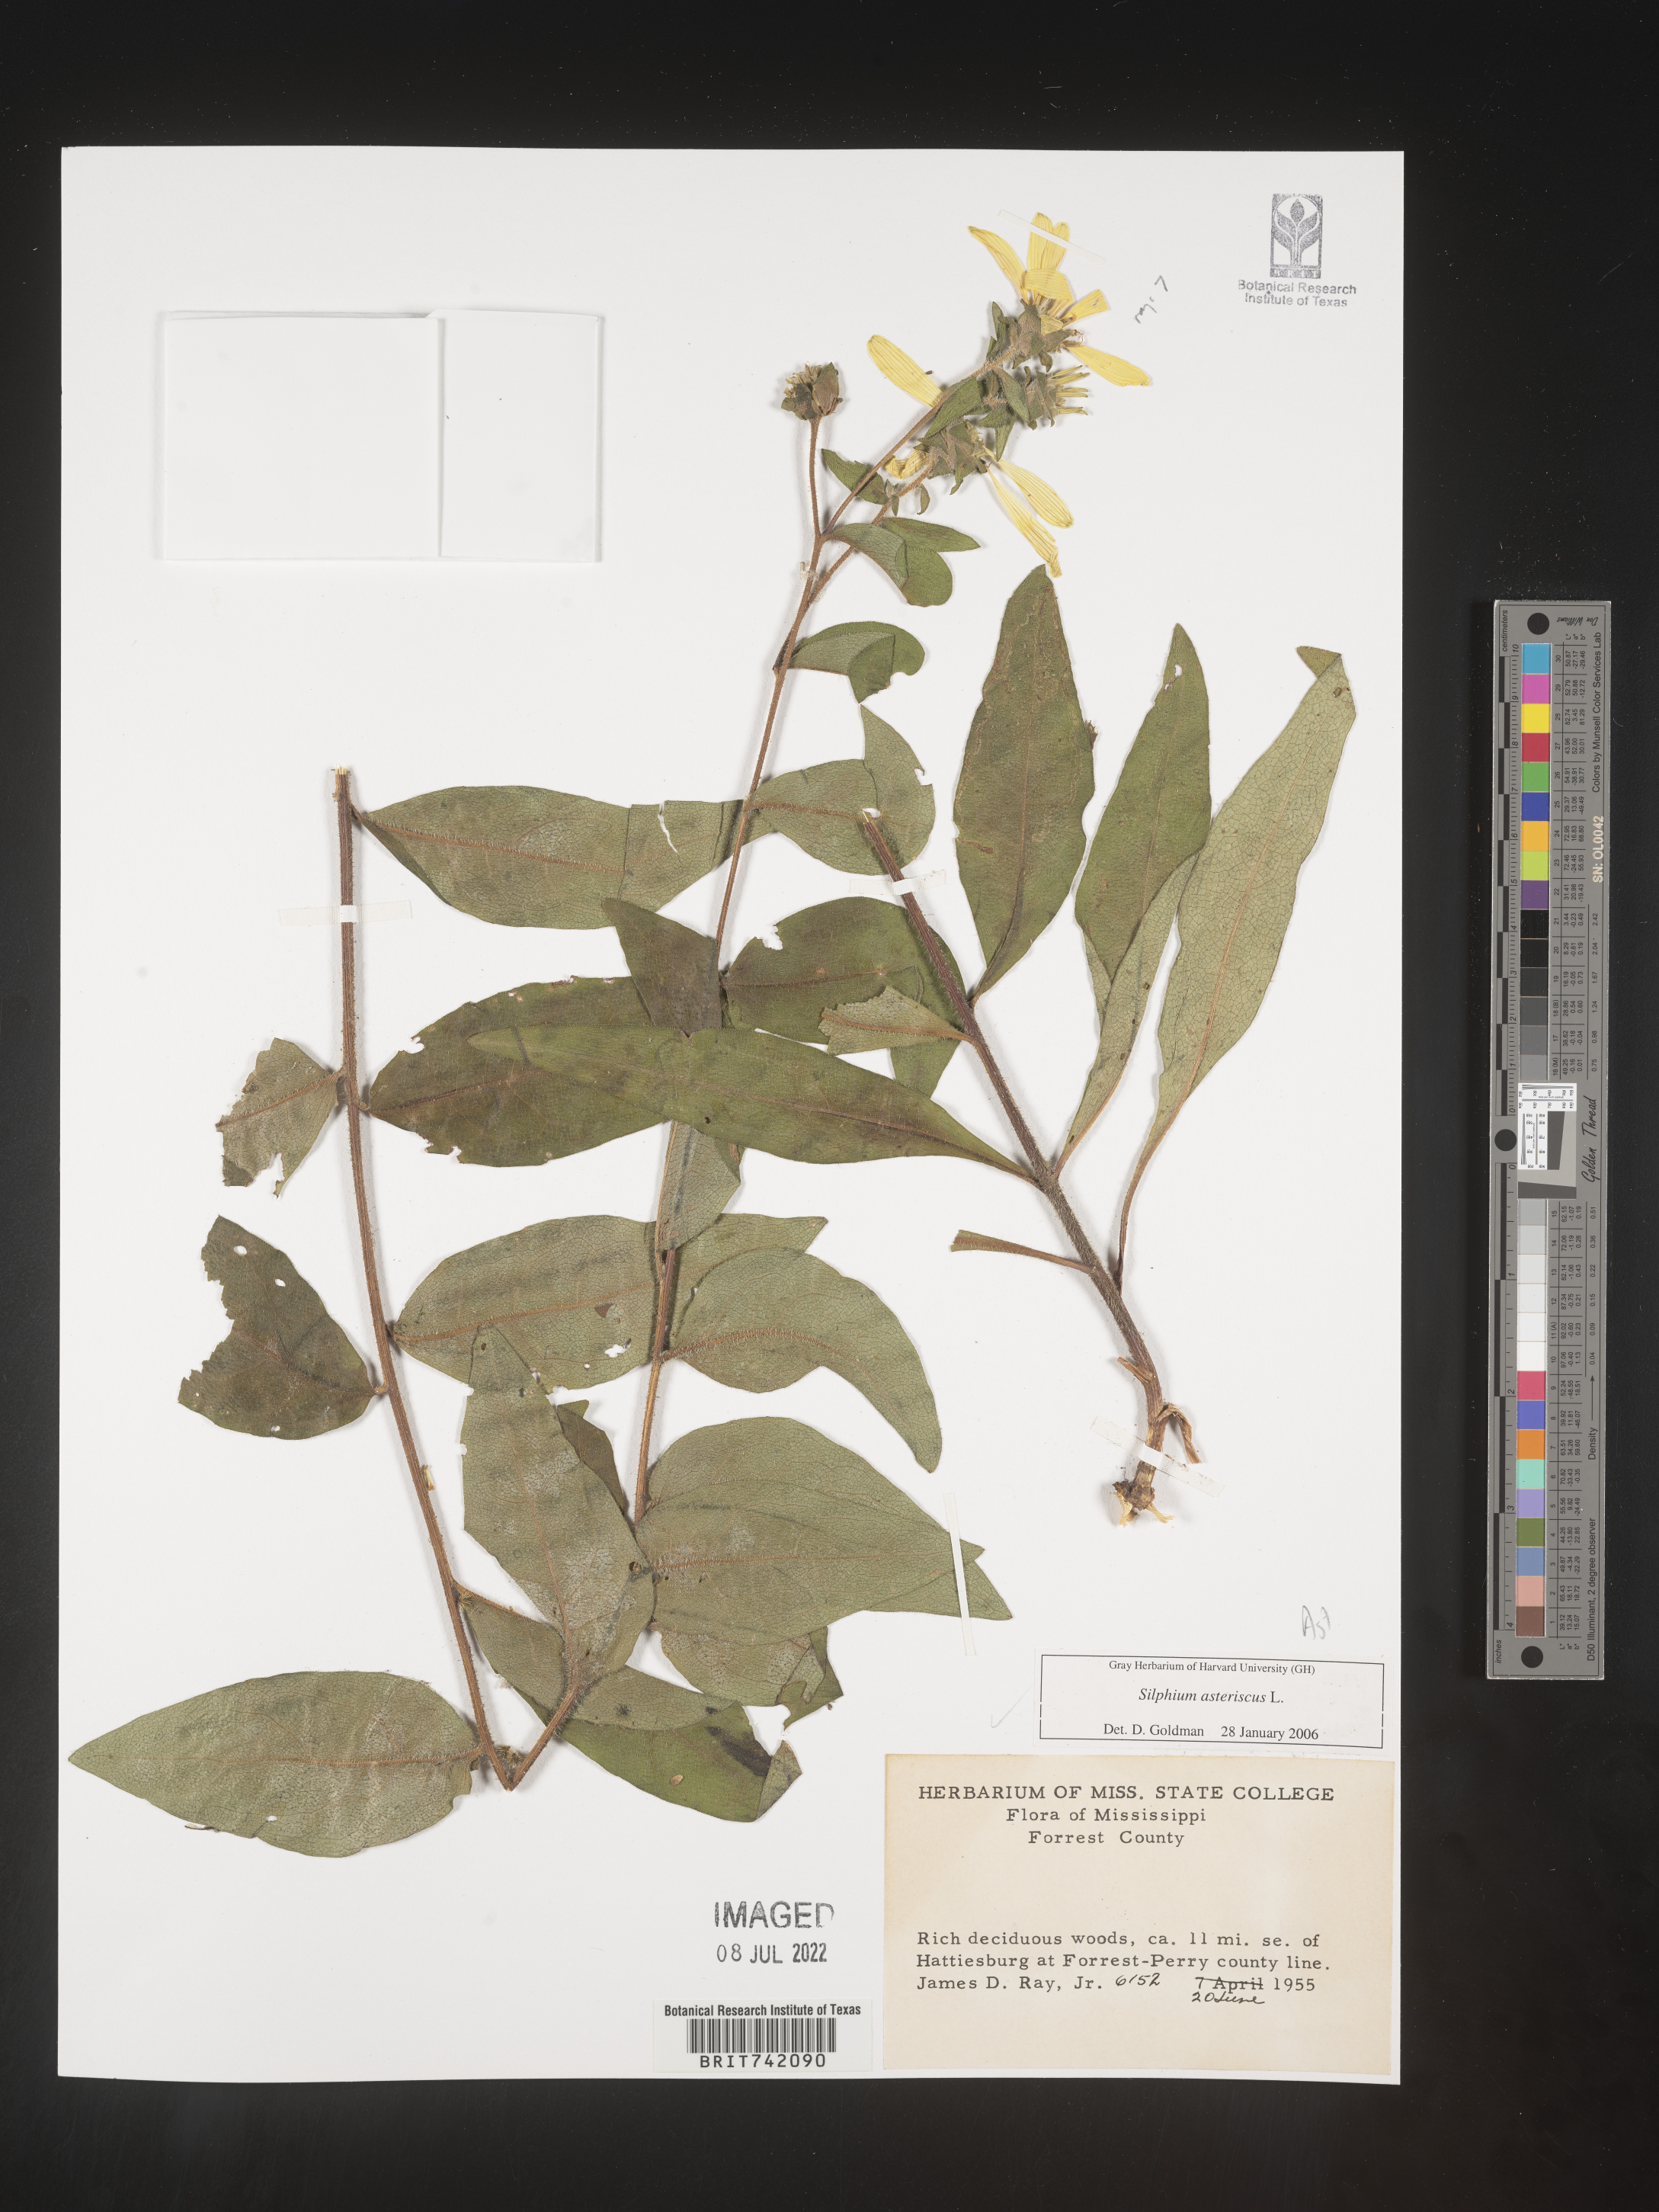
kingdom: Plantae
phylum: Tracheophyta
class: Magnoliopsida
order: Asterales
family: Asteraceae
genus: Silphium
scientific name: Silphium asperrimum
